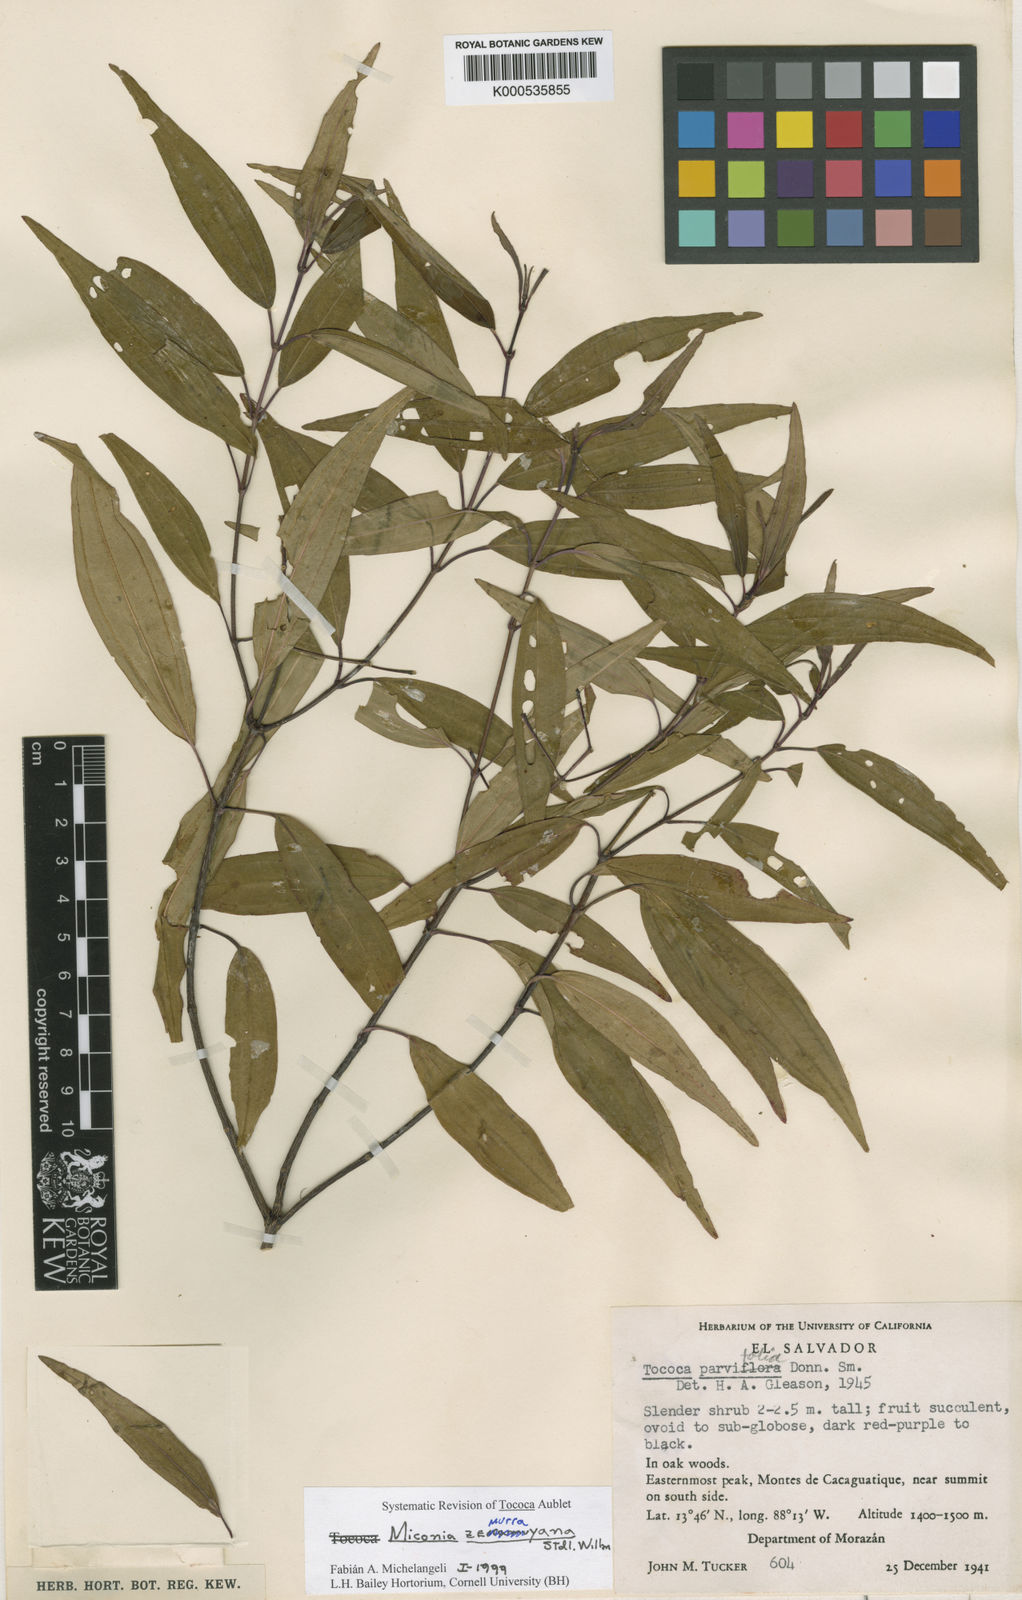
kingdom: Plantae
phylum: Tracheophyta
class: Magnoliopsida
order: Myrtales
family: Melastomataceae
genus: Miconia
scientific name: Miconia zemurrayana
